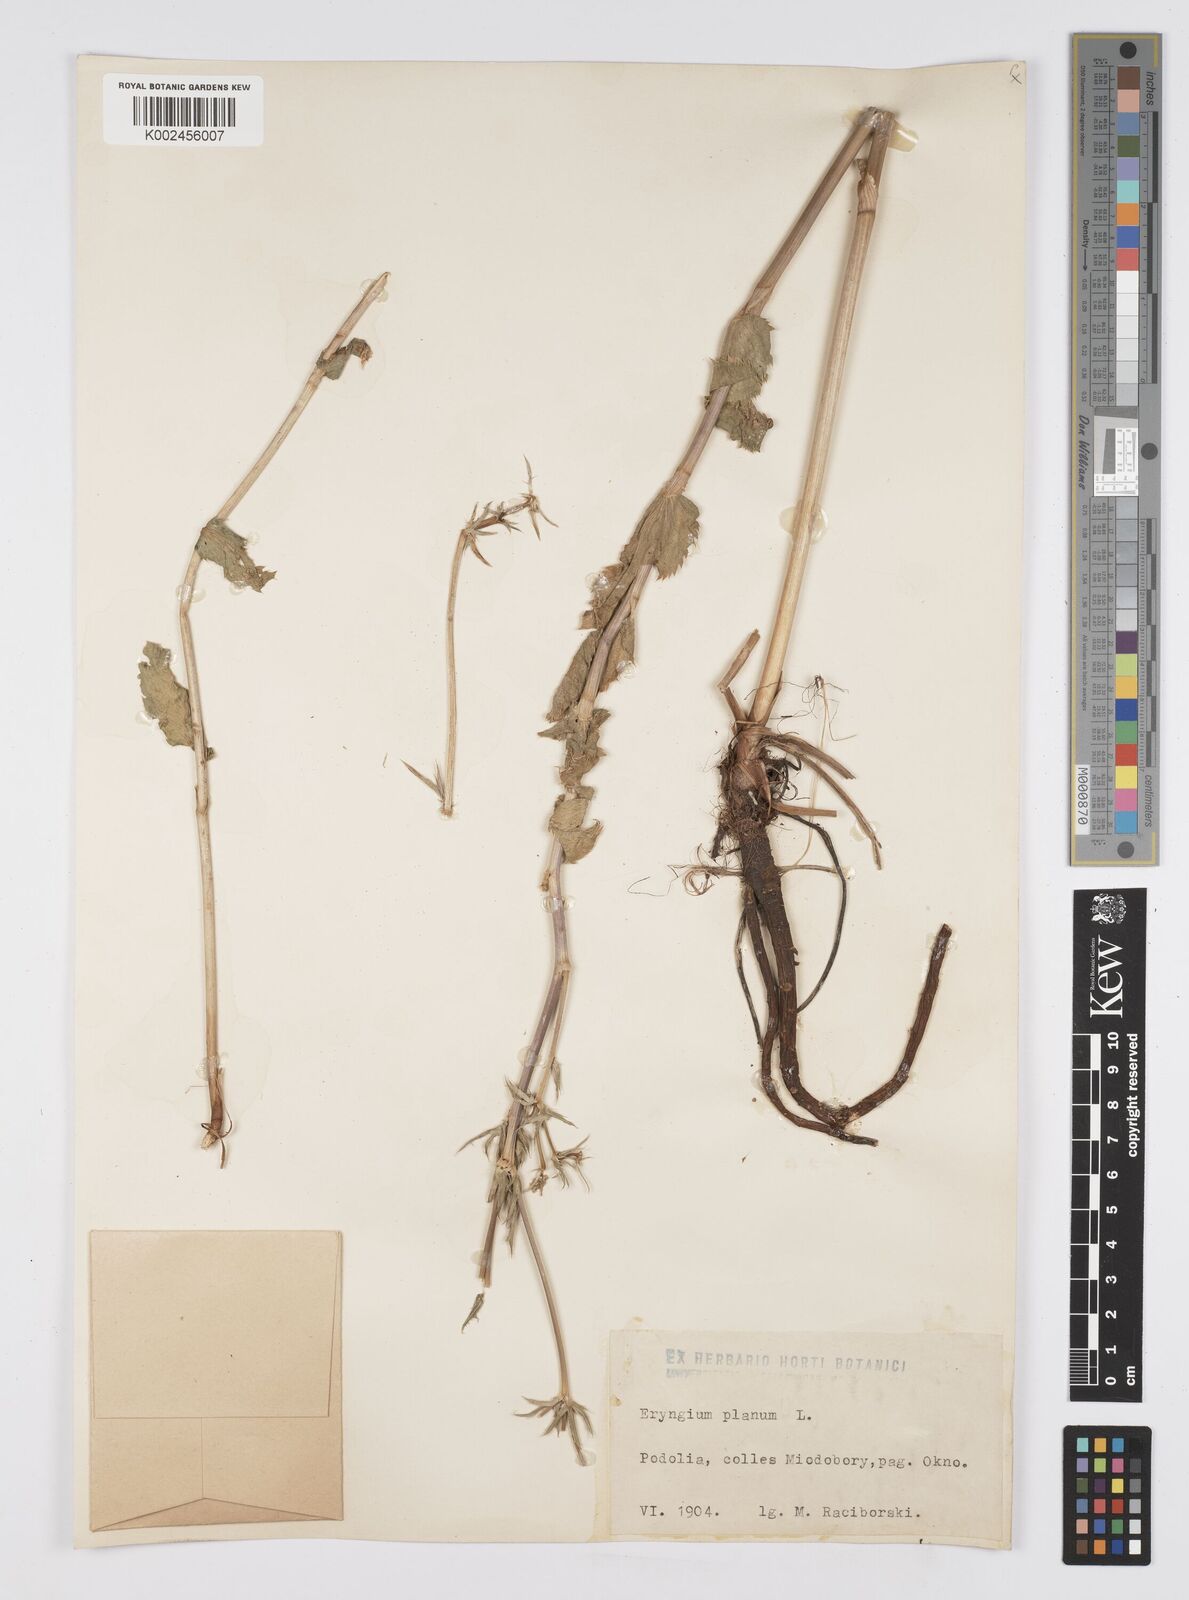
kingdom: Plantae
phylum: Tracheophyta
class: Magnoliopsida
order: Apiales
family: Apiaceae
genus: Eryngium
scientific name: Eryngium planum
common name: Blue eryngo
